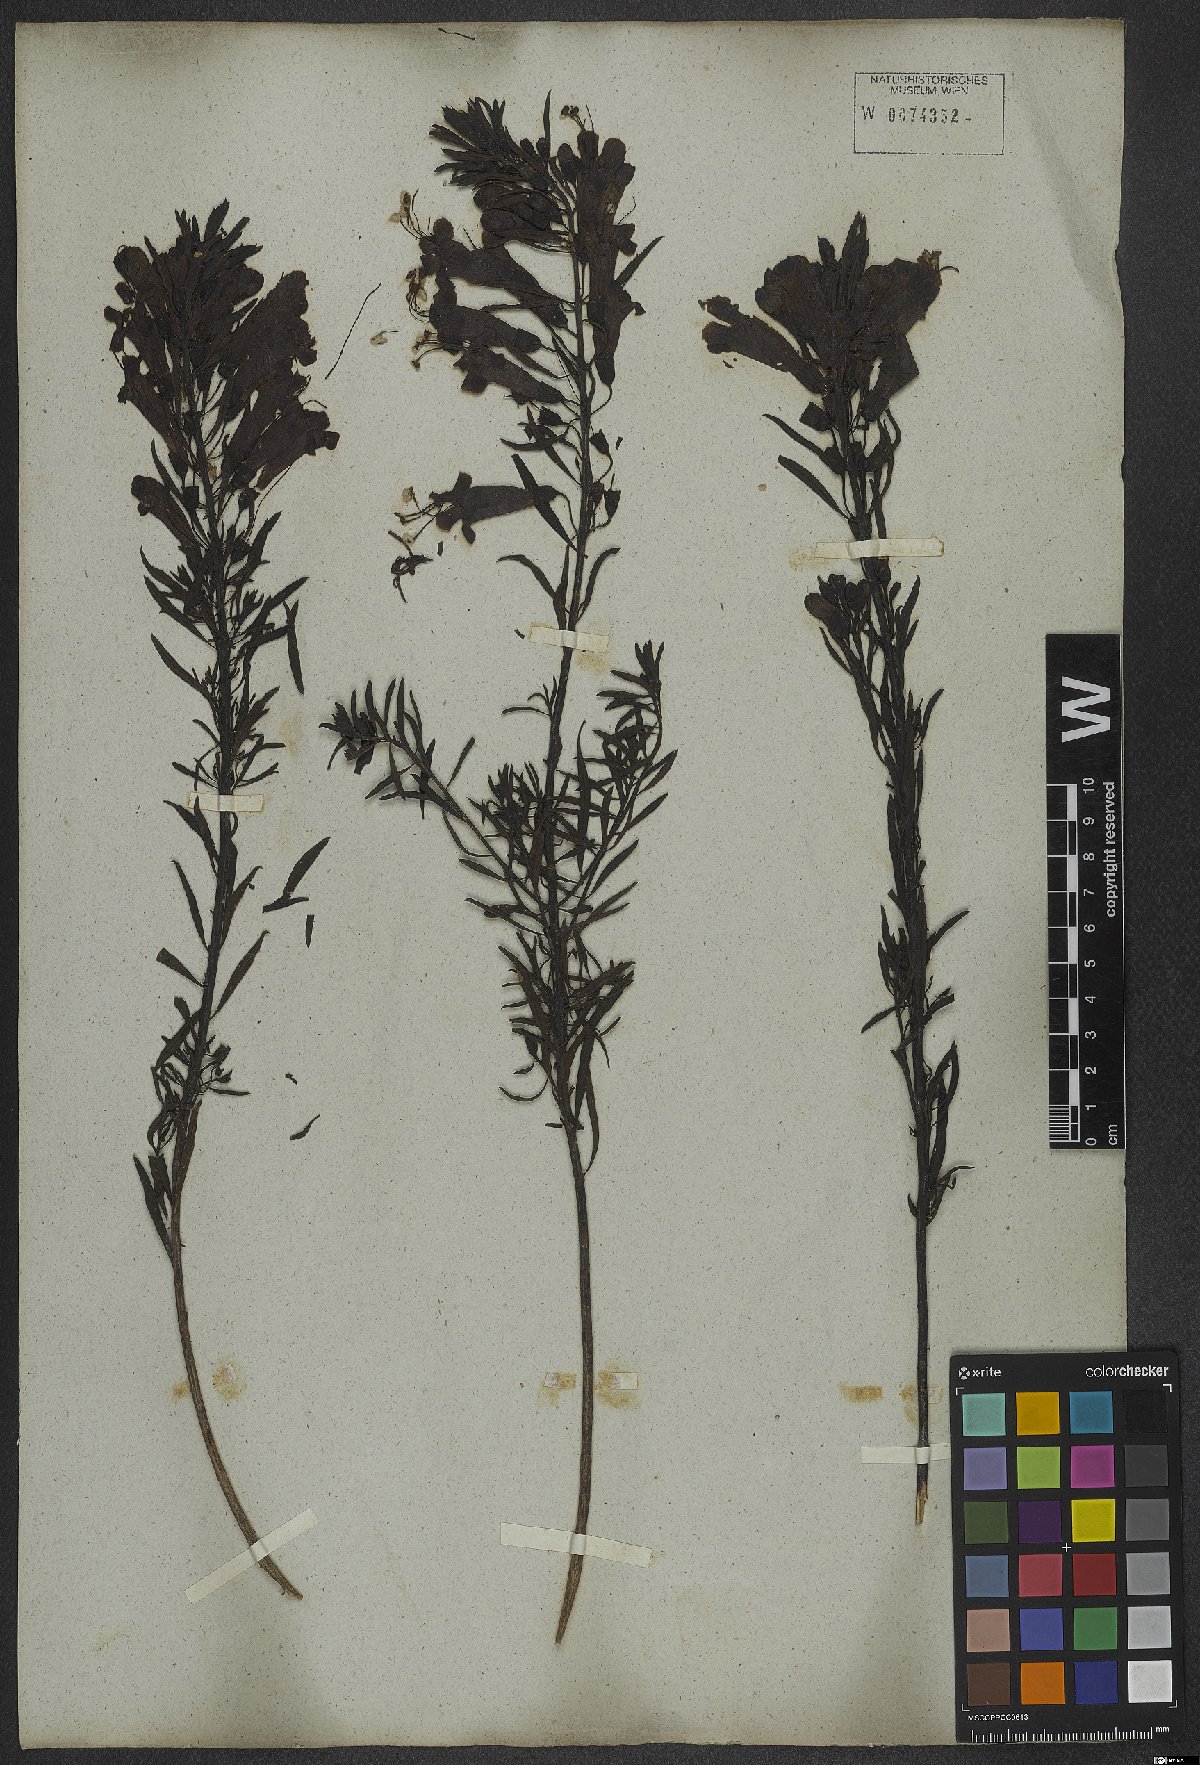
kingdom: Plantae
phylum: Tracheophyta
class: Magnoliopsida
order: Lamiales
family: Orobanchaceae
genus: Esterhazya
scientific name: Esterhazya splendida
